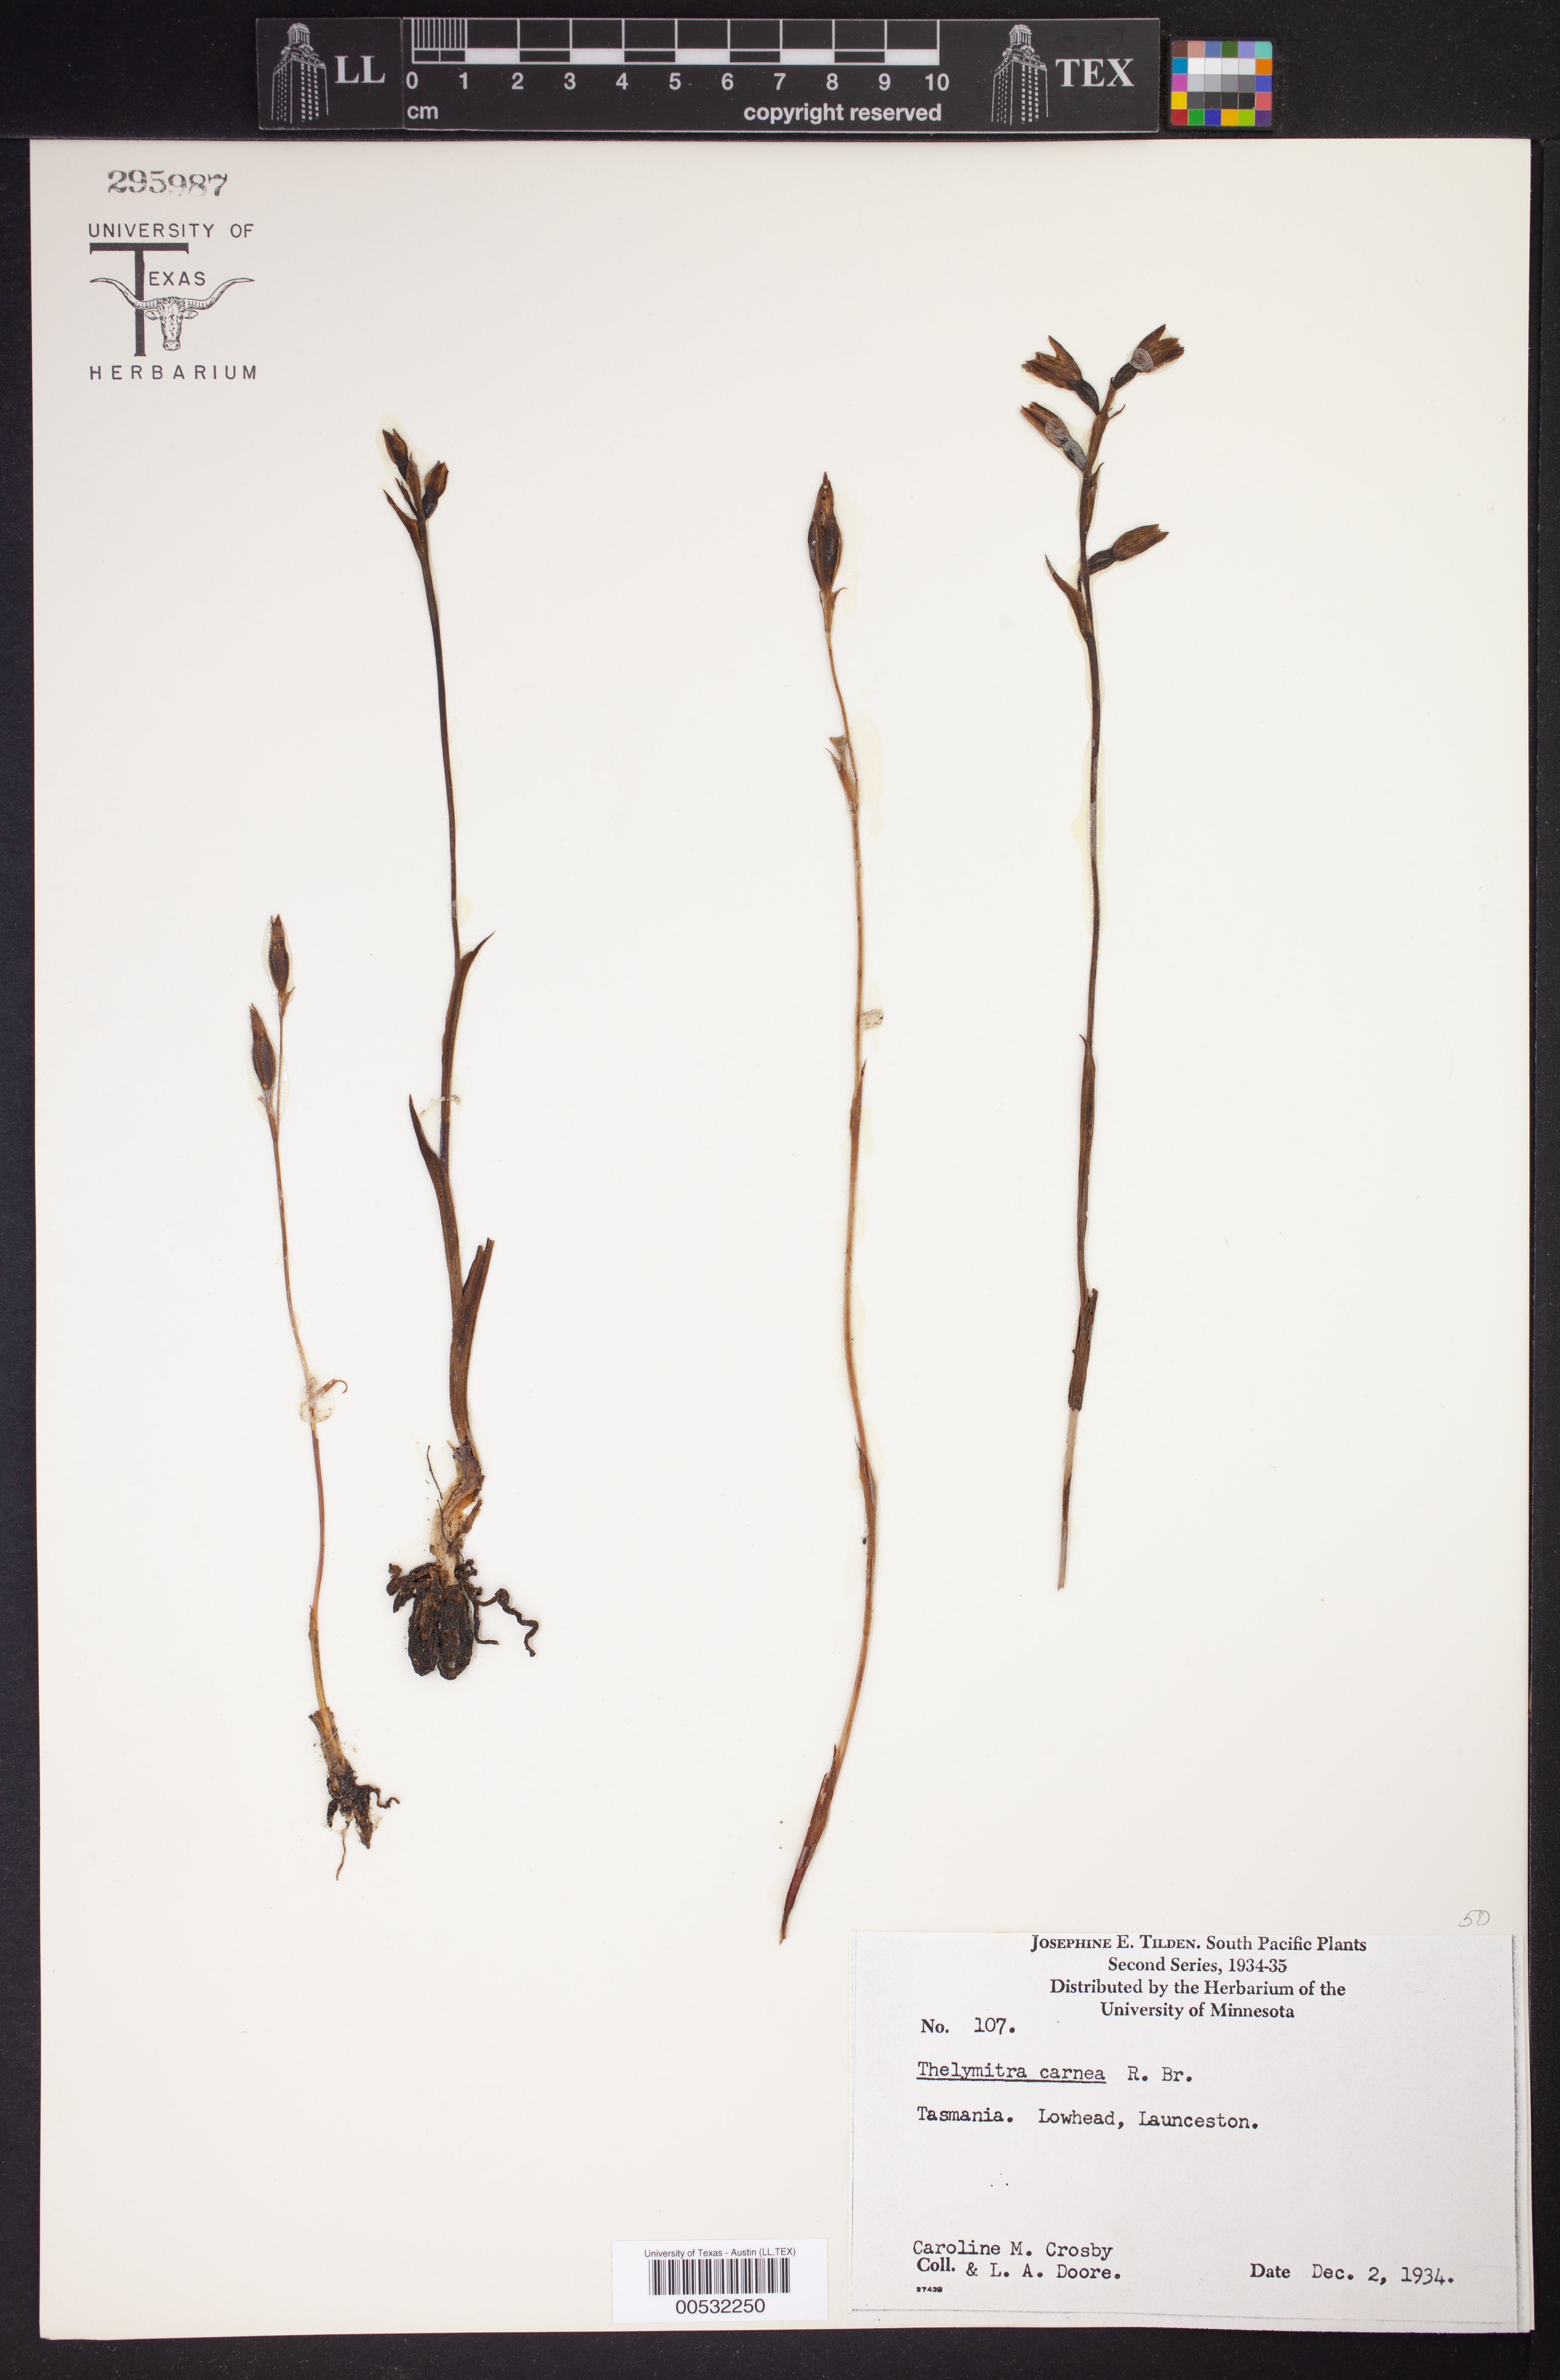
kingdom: Plantae
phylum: Tracheophyta
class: Liliopsida
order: Asparagales
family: Orchidaceae
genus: Thelymitra
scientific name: Thelymitra carnea
